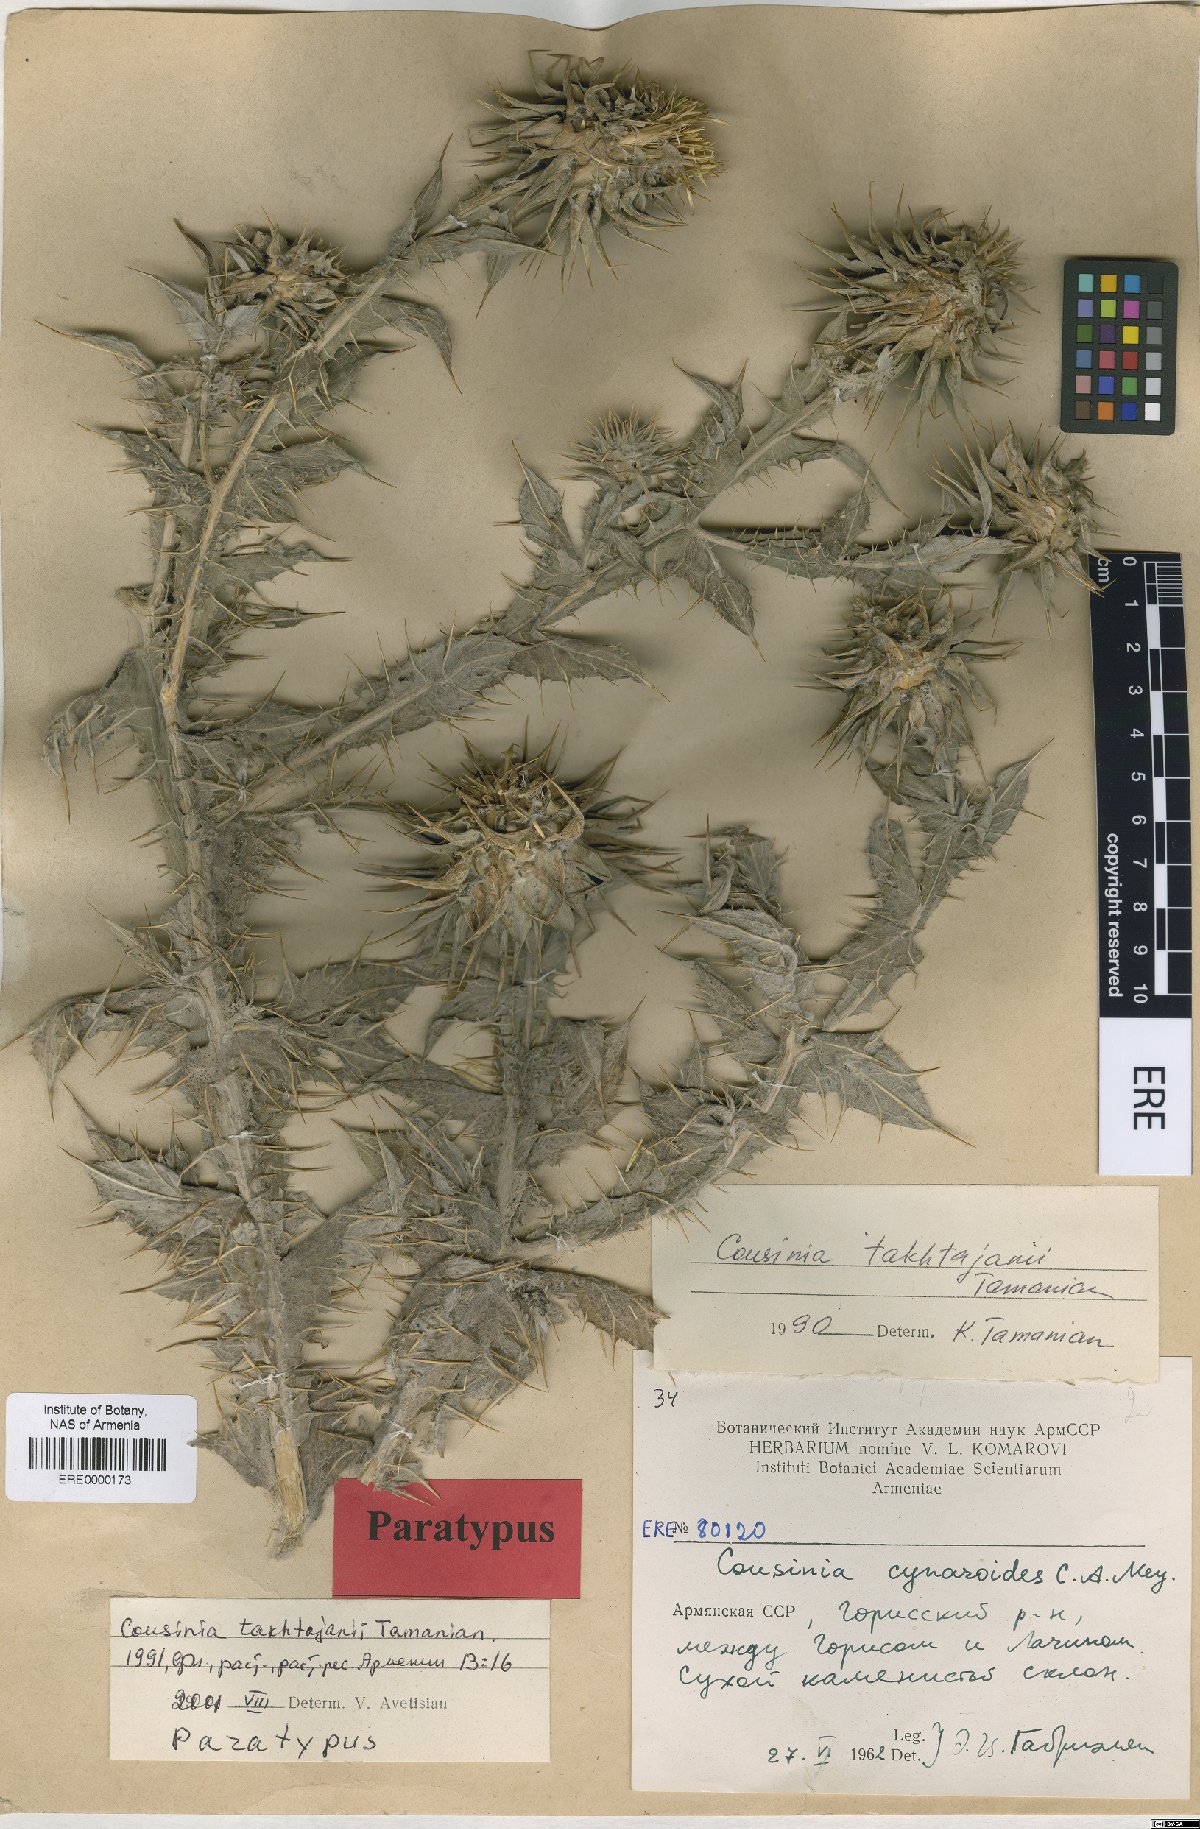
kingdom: Plantae
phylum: Tracheophyta
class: Magnoliopsida
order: Asterales
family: Asteraceae
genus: Cousinia
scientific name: Cousinia macrocephala
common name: Macrocephalous cousinia
